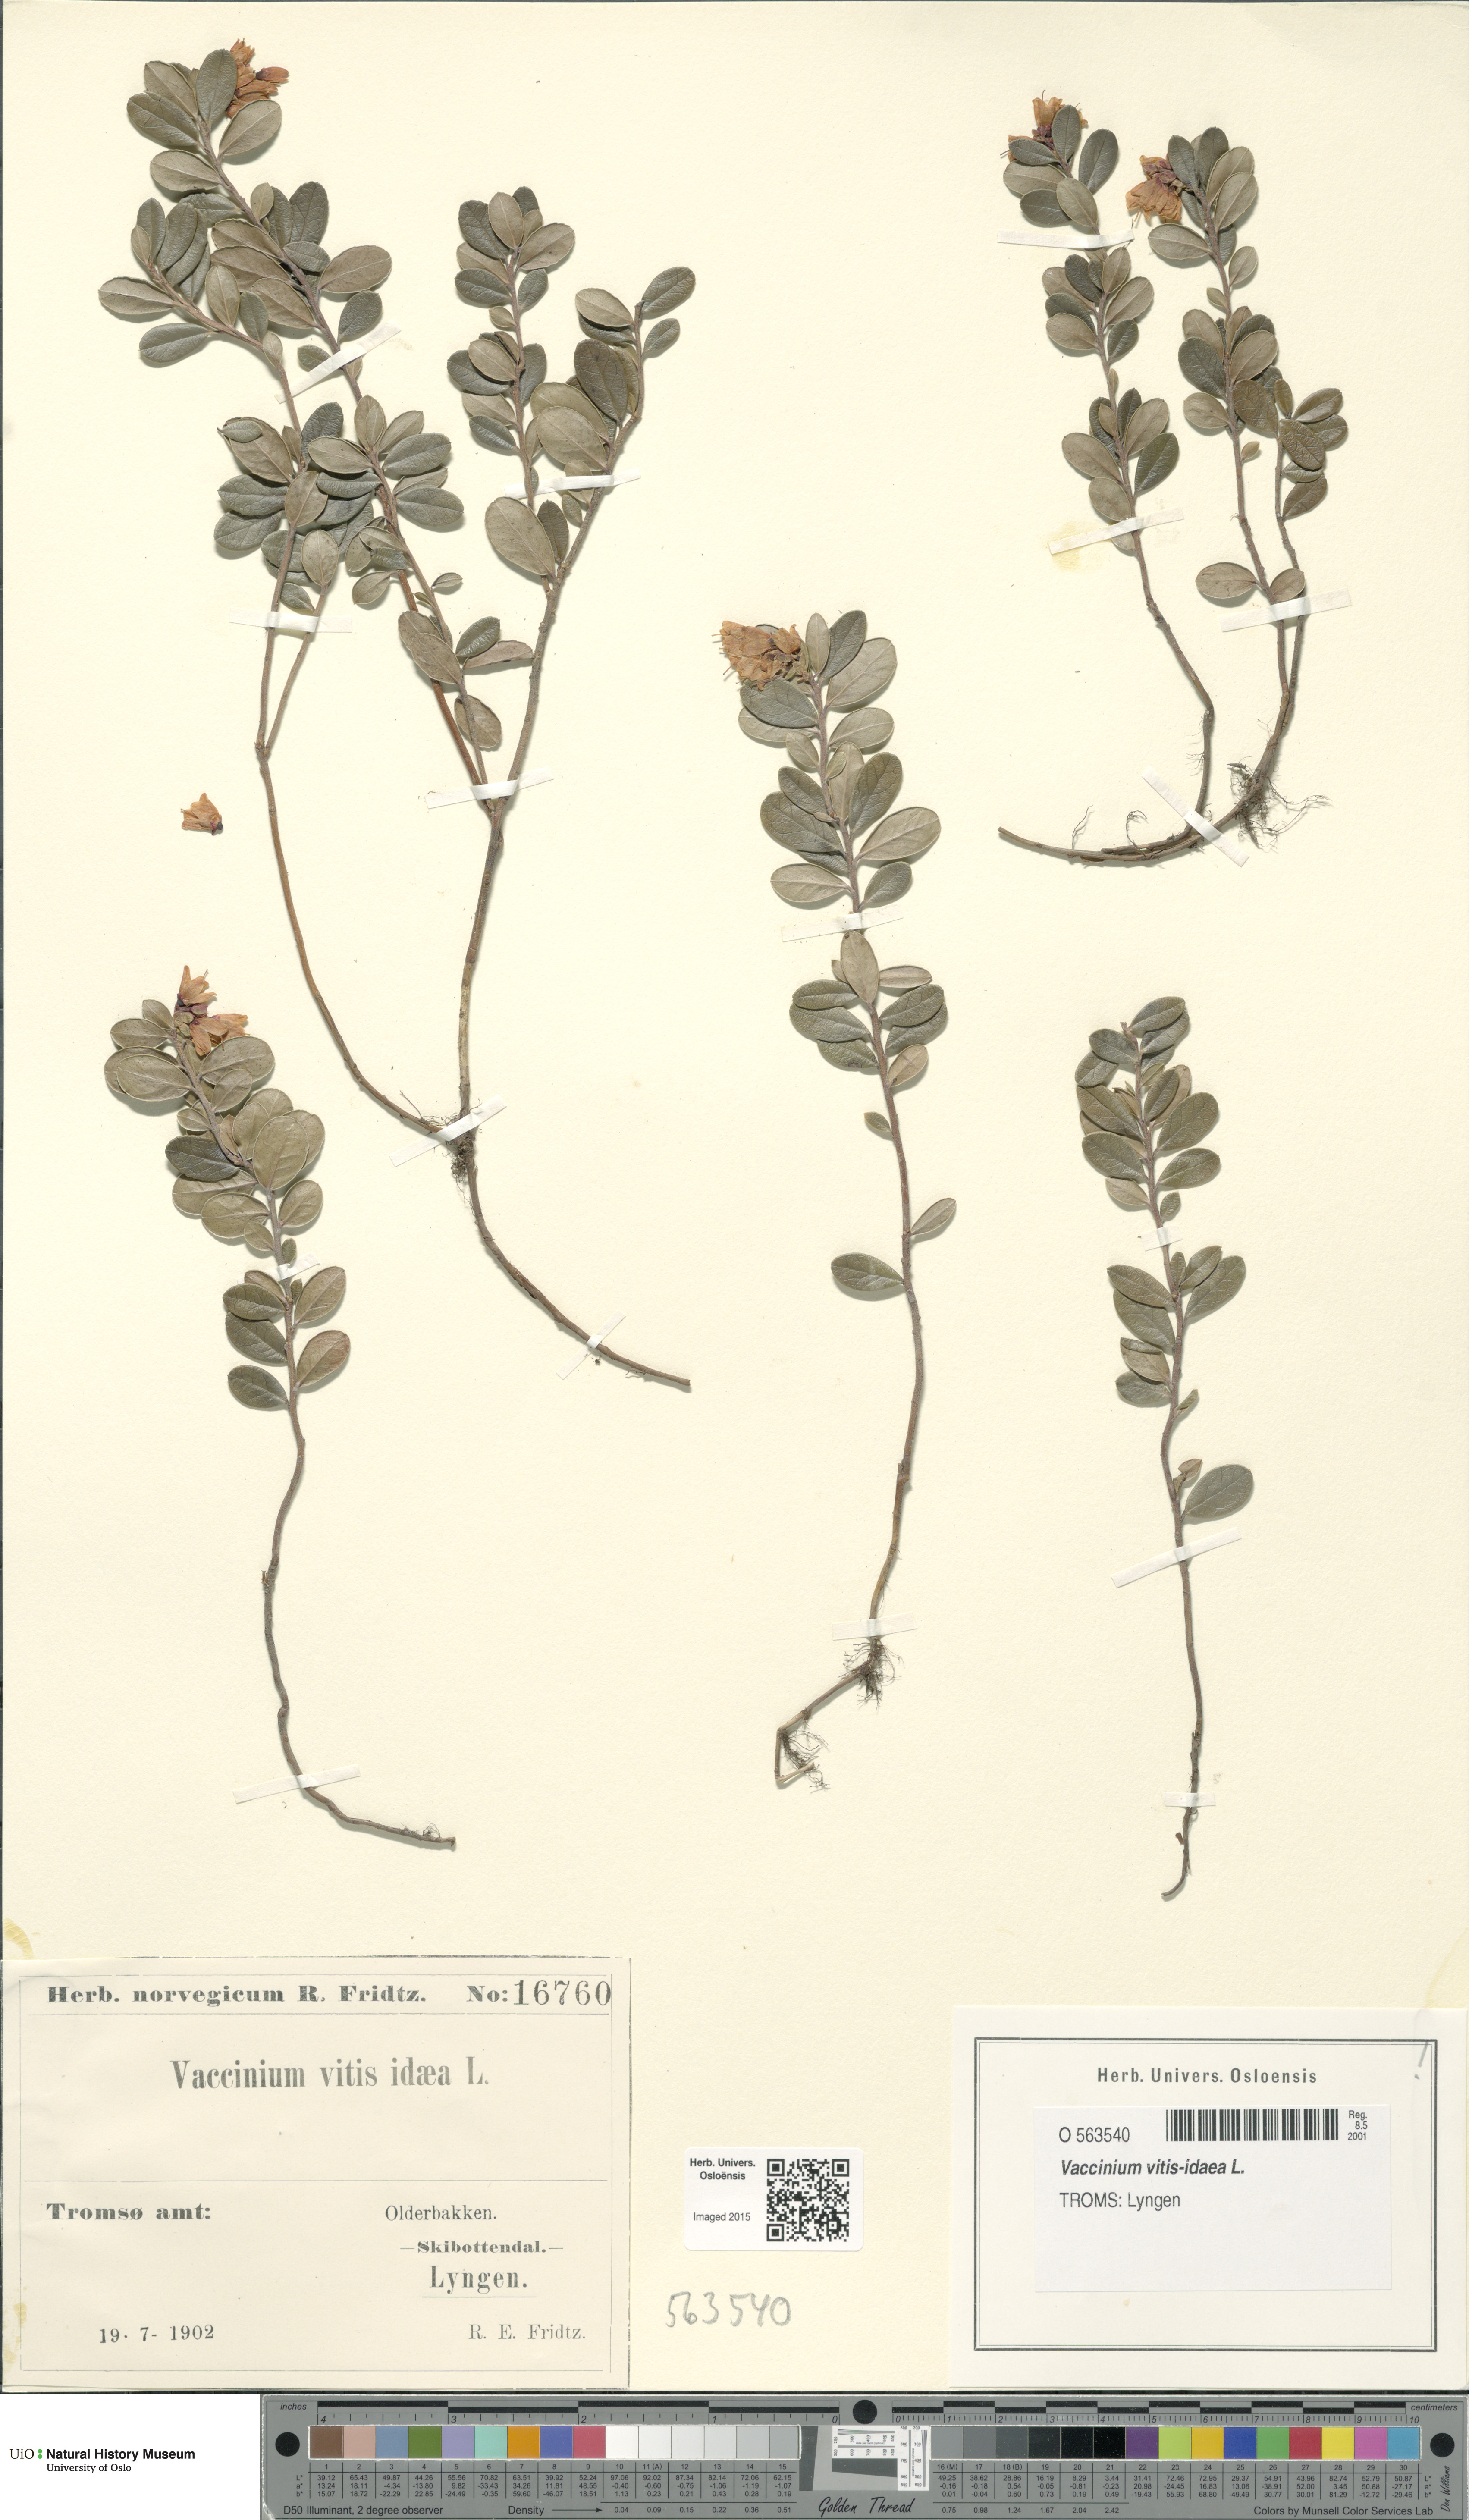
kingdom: Plantae
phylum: Tracheophyta
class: Magnoliopsida
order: Ericales
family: Ericaceae
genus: Vaccinium
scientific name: Vaccinium vitis-idaea
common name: Cowberry
